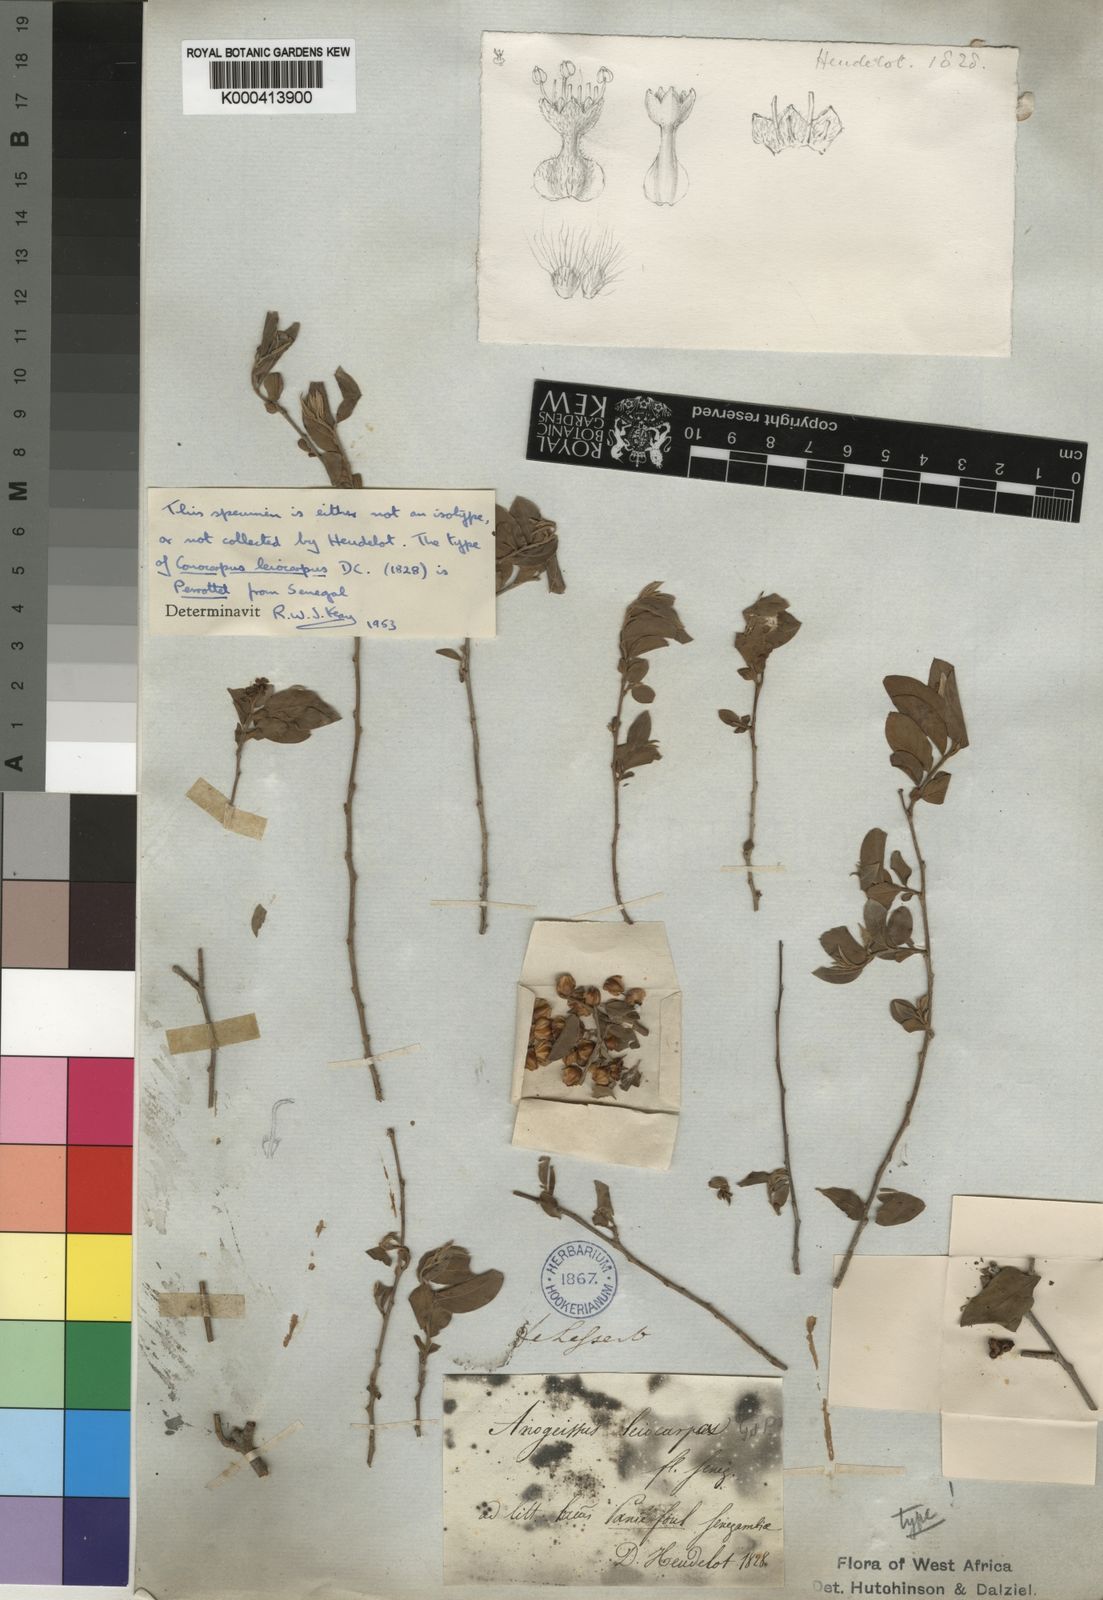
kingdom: Plantae
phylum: Tracheophyta
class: Magnoliopsida
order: Myrtales
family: Combretaceae
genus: Terminalia
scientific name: Terminalia leiocarpa
